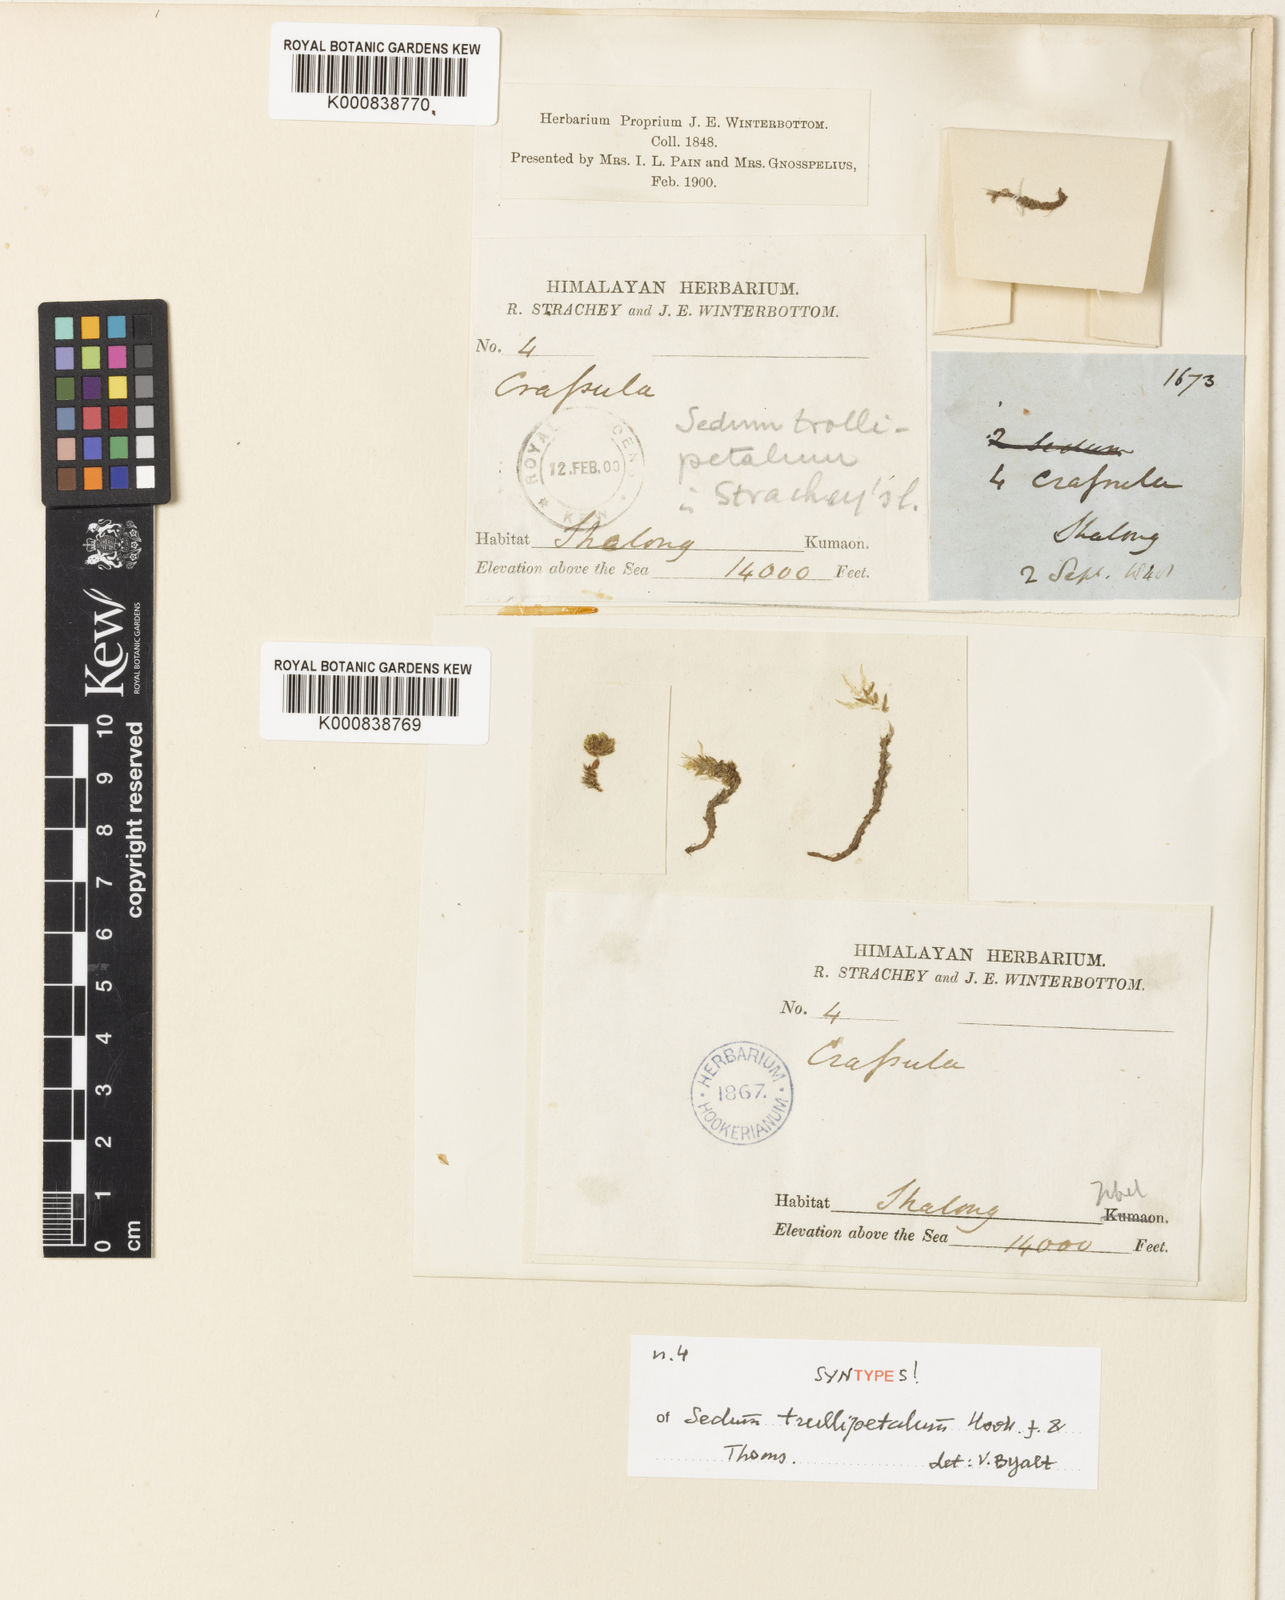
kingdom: Plantae
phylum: Tracheophyta
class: Magnoliopsida
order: Saxifragales
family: Crassulaceae
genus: Sedum
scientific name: Sedum trullipetalum
